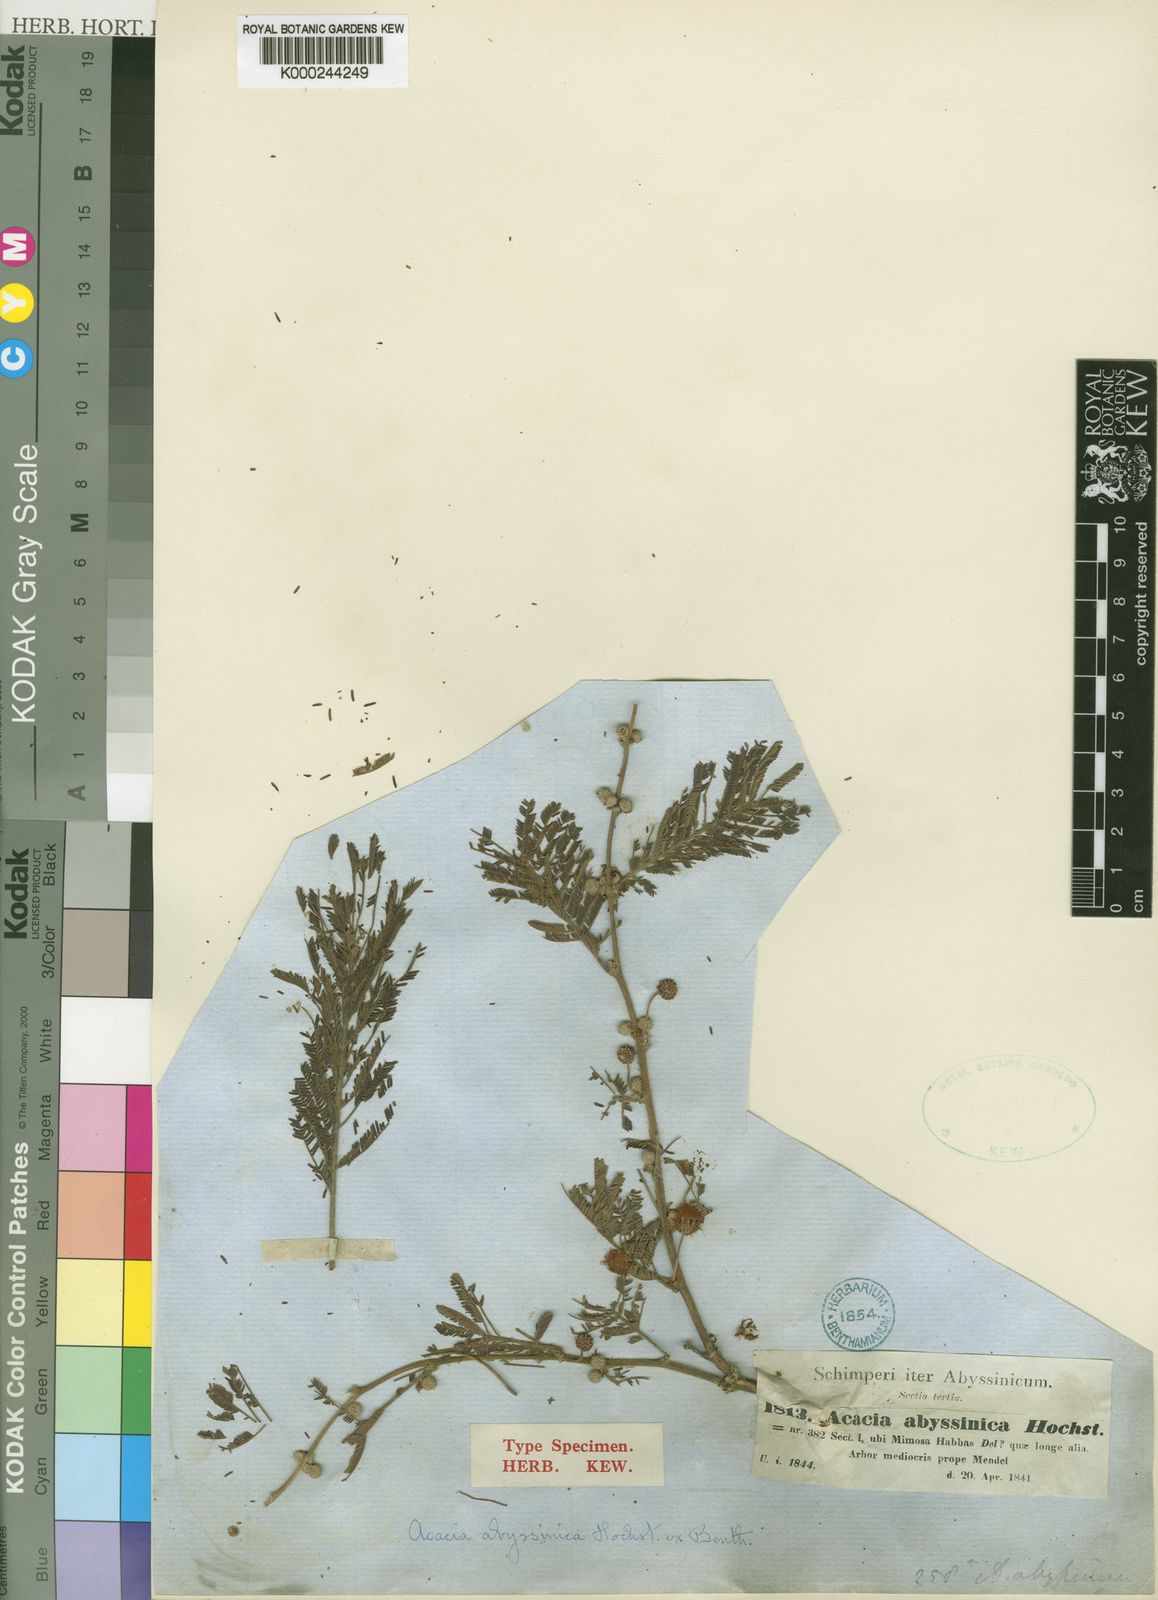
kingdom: Plantae
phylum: Tracheophyta
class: Magnoliopsida
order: Fabales
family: Fabaceae
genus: Vachellia
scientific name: Vachellia abyssinica
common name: Nyanga flat-top
